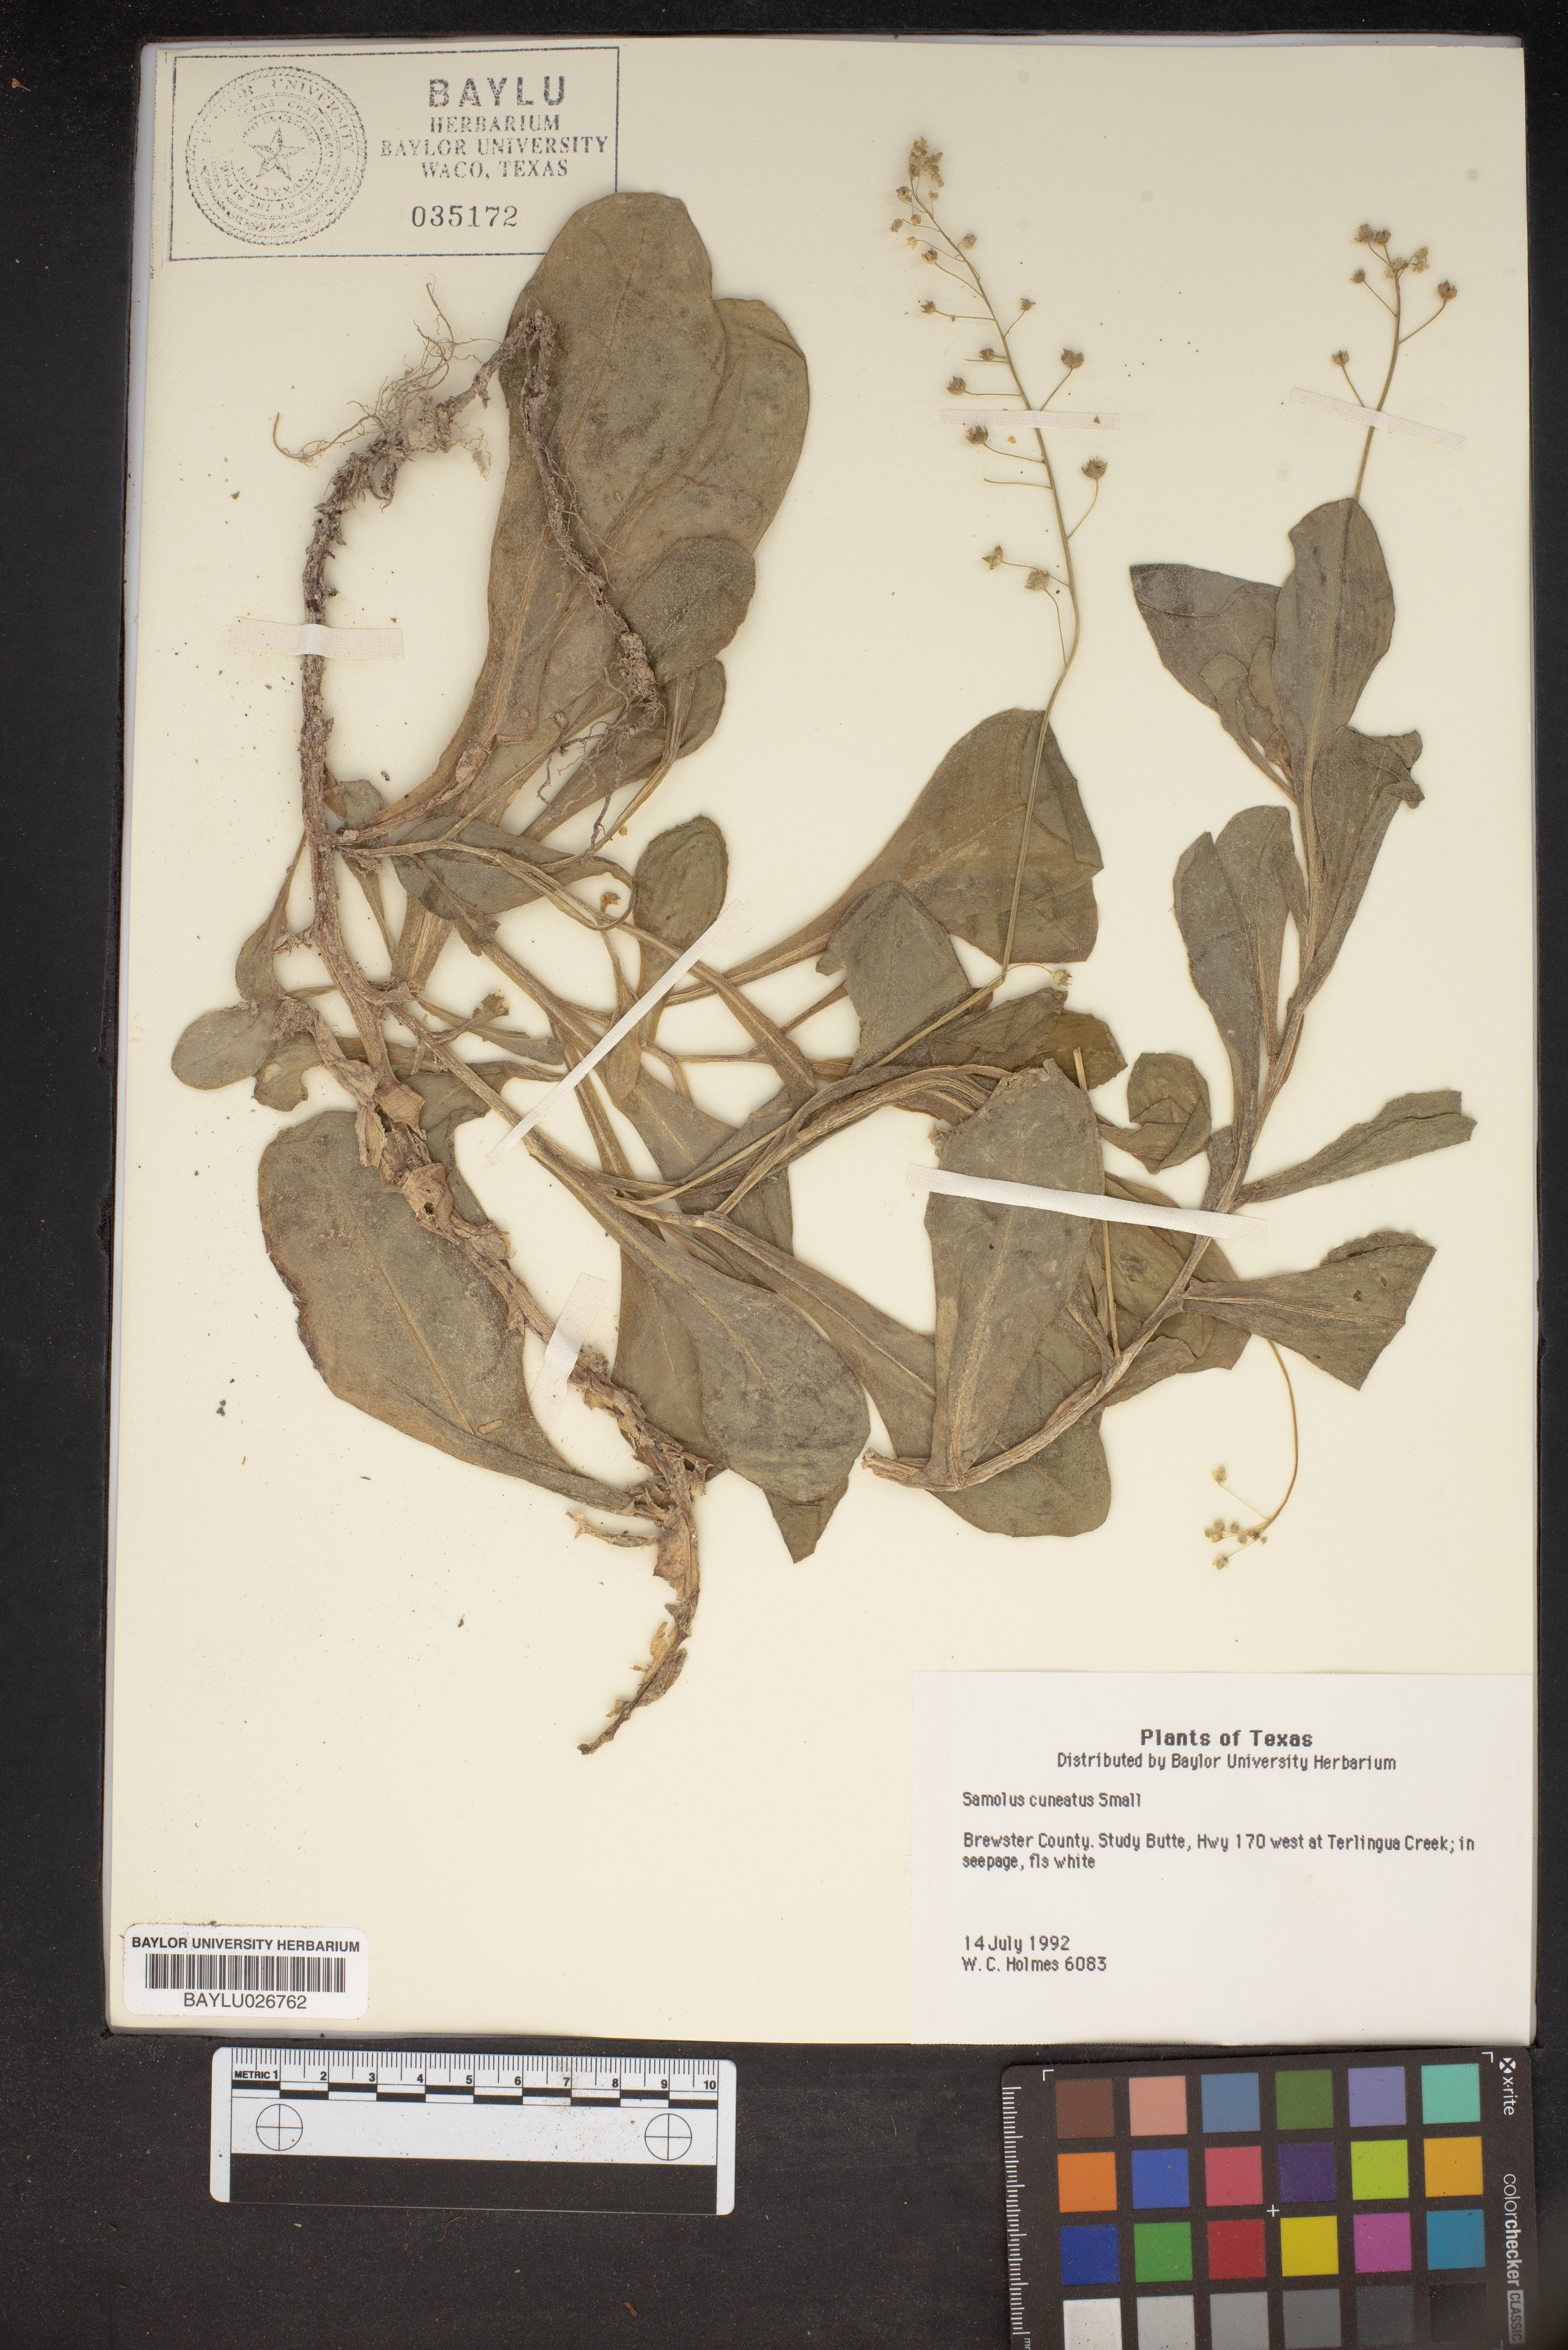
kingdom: Plantae
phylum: Tracheophyta
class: Magnoliopsida
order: Ericales
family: Primulaceae
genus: Samolus
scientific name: Samolus ebracteatus
